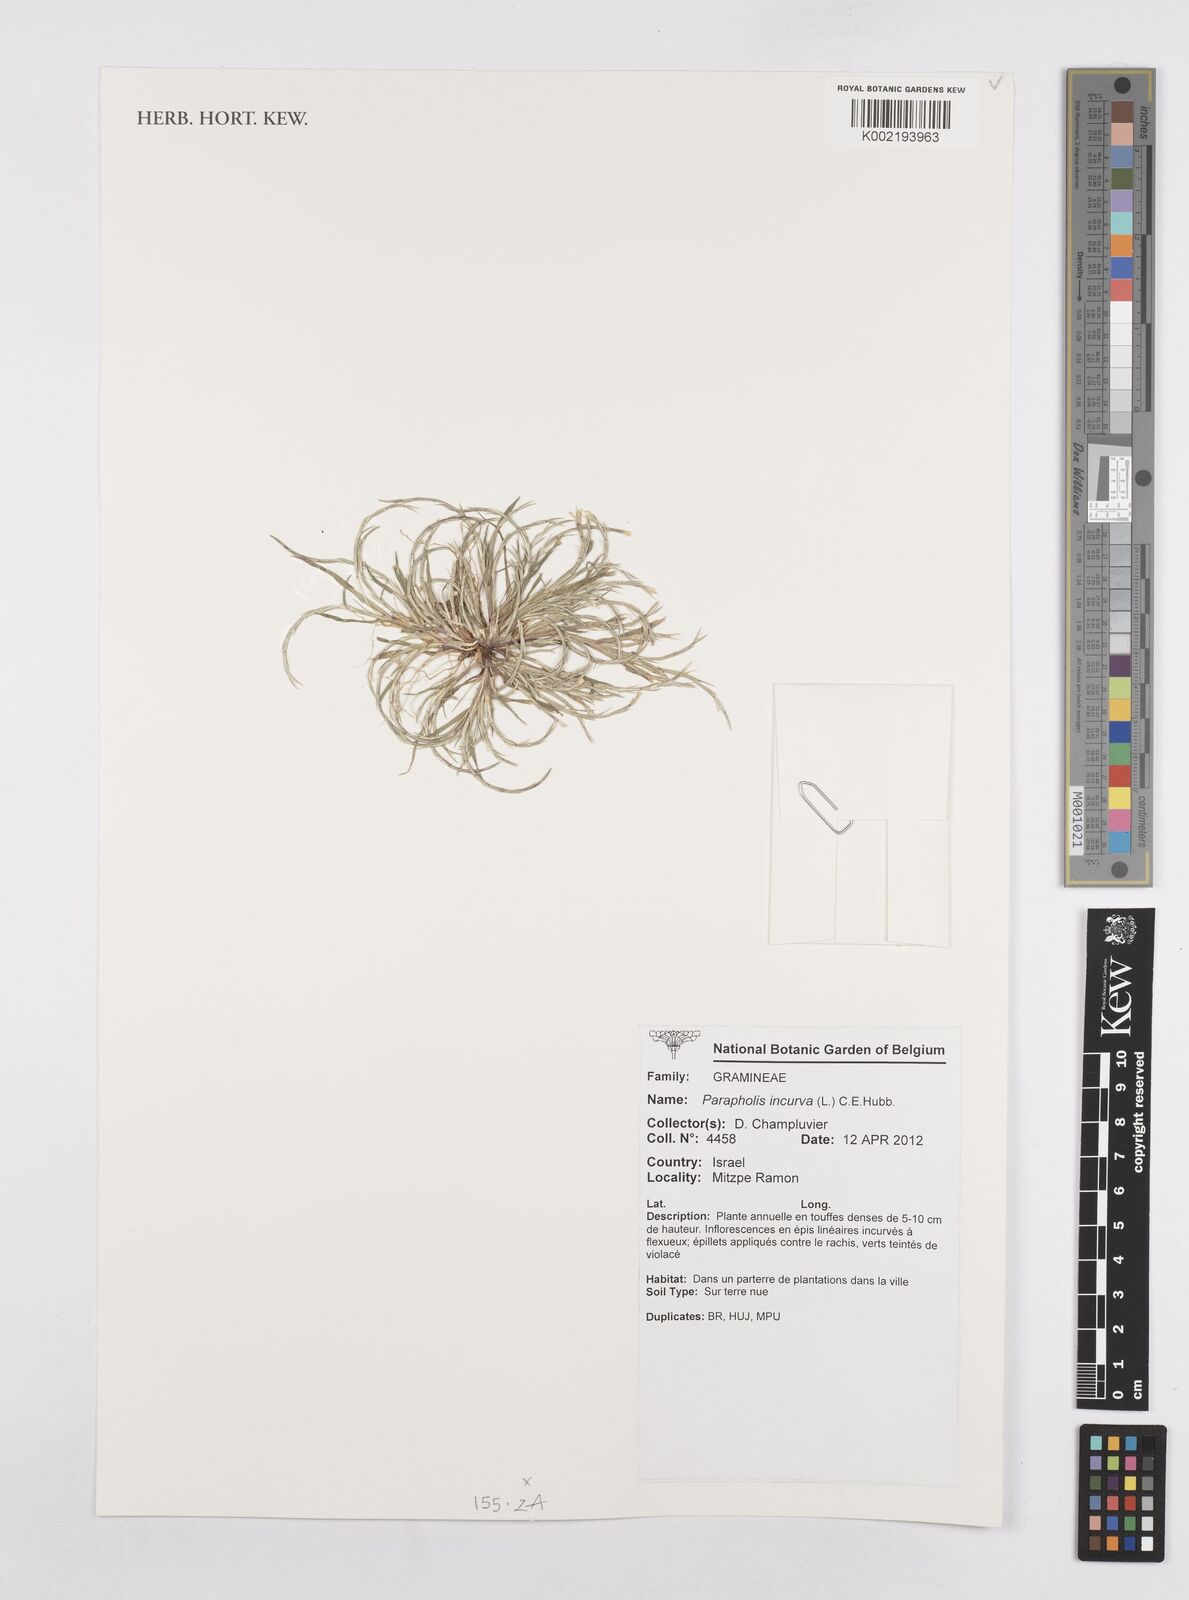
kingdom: Plantae
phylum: Tracheophyta
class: Liliopsida
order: Poales
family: Poaceae
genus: Parapholis
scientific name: Parapholis incurva
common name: Curved sicklegrass
